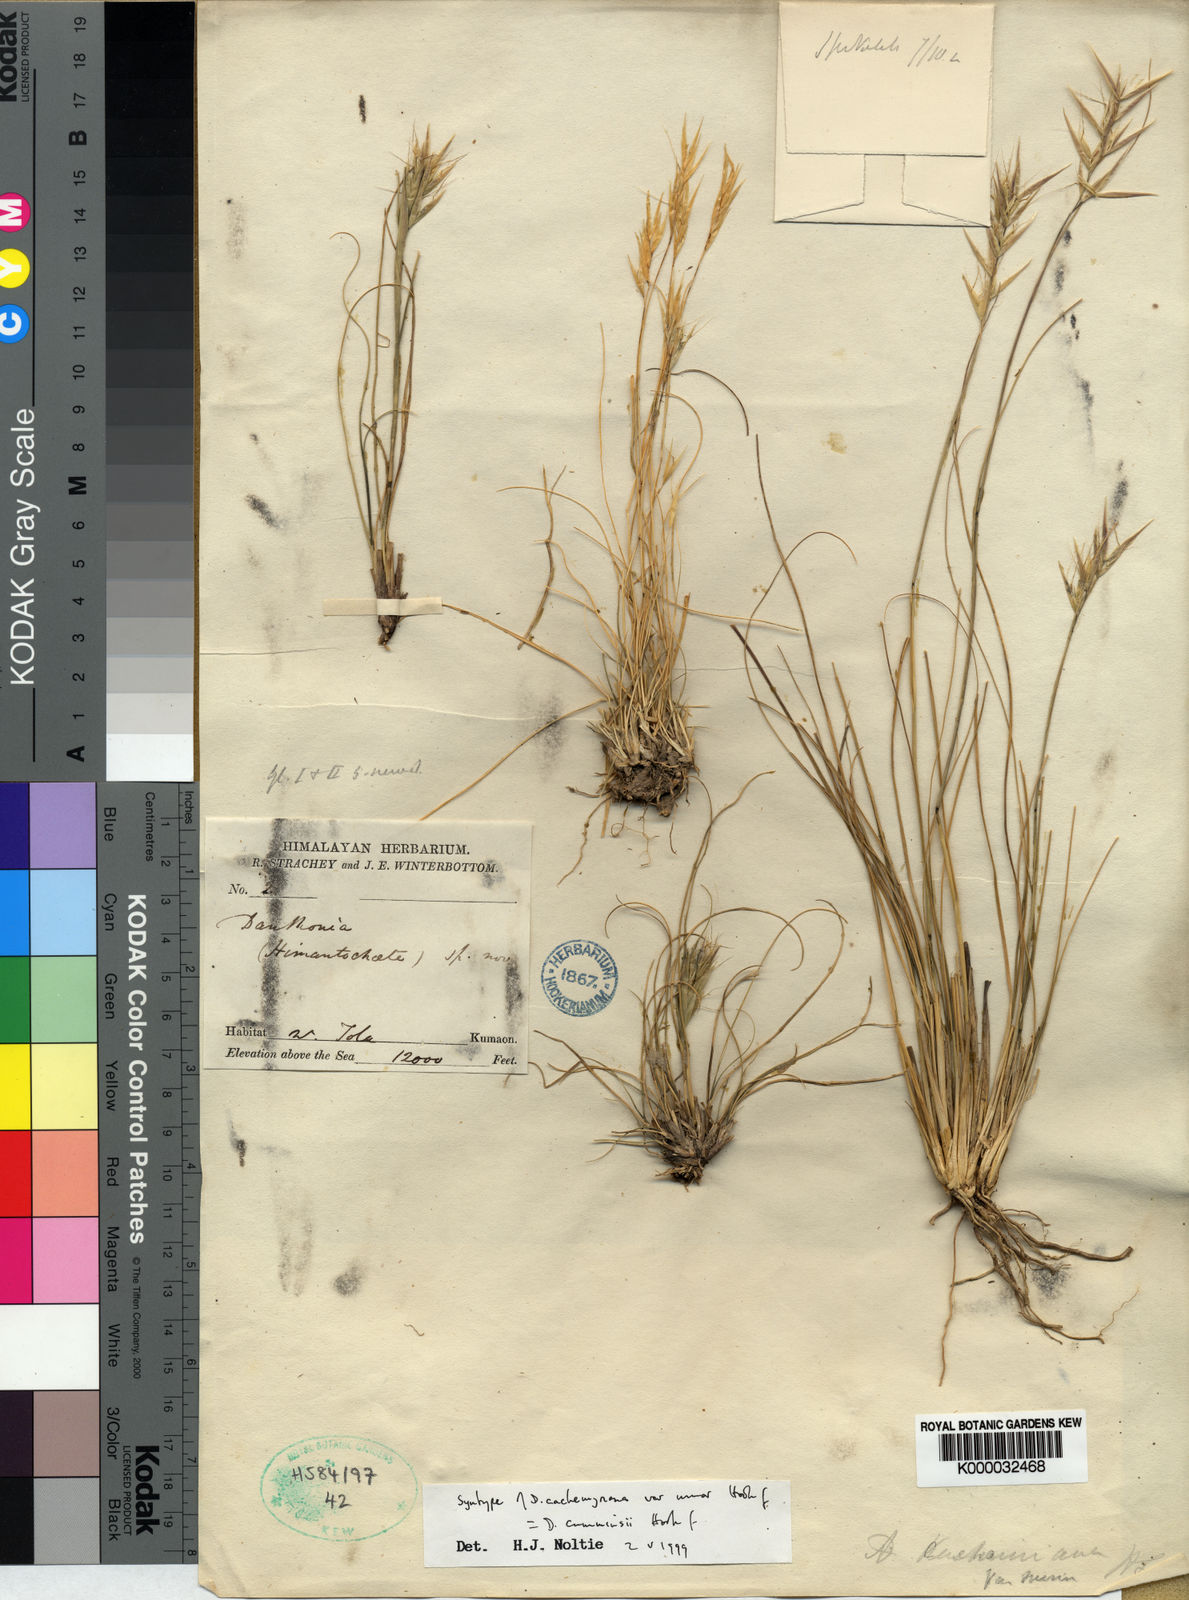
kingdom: Plantae
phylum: Tracheophyta
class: Liliopsida
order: Poales
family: Poaceae
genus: Rytidosperma
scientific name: Rytidosperma
